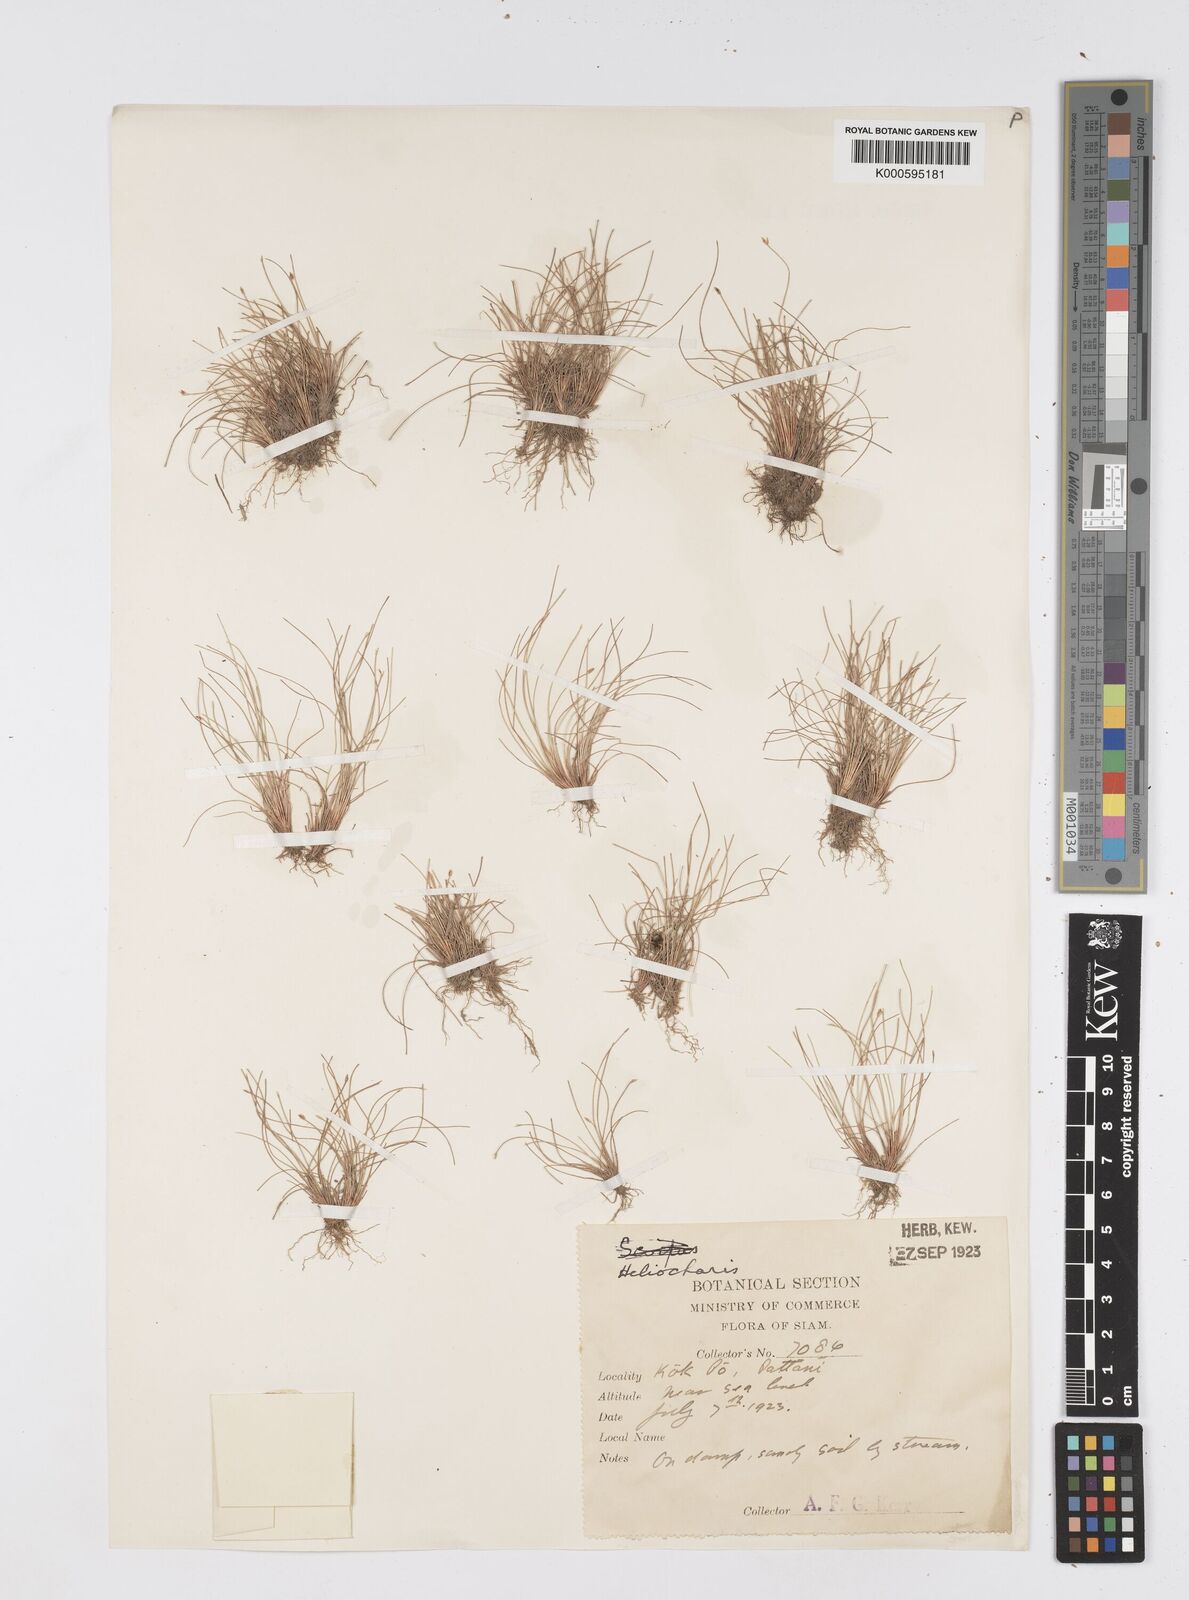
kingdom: Plantae
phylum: Tracheophyta
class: Liliopsida
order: Poales
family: Cyperaceae
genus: Eleocharis
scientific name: Eleocharis retroflexa
